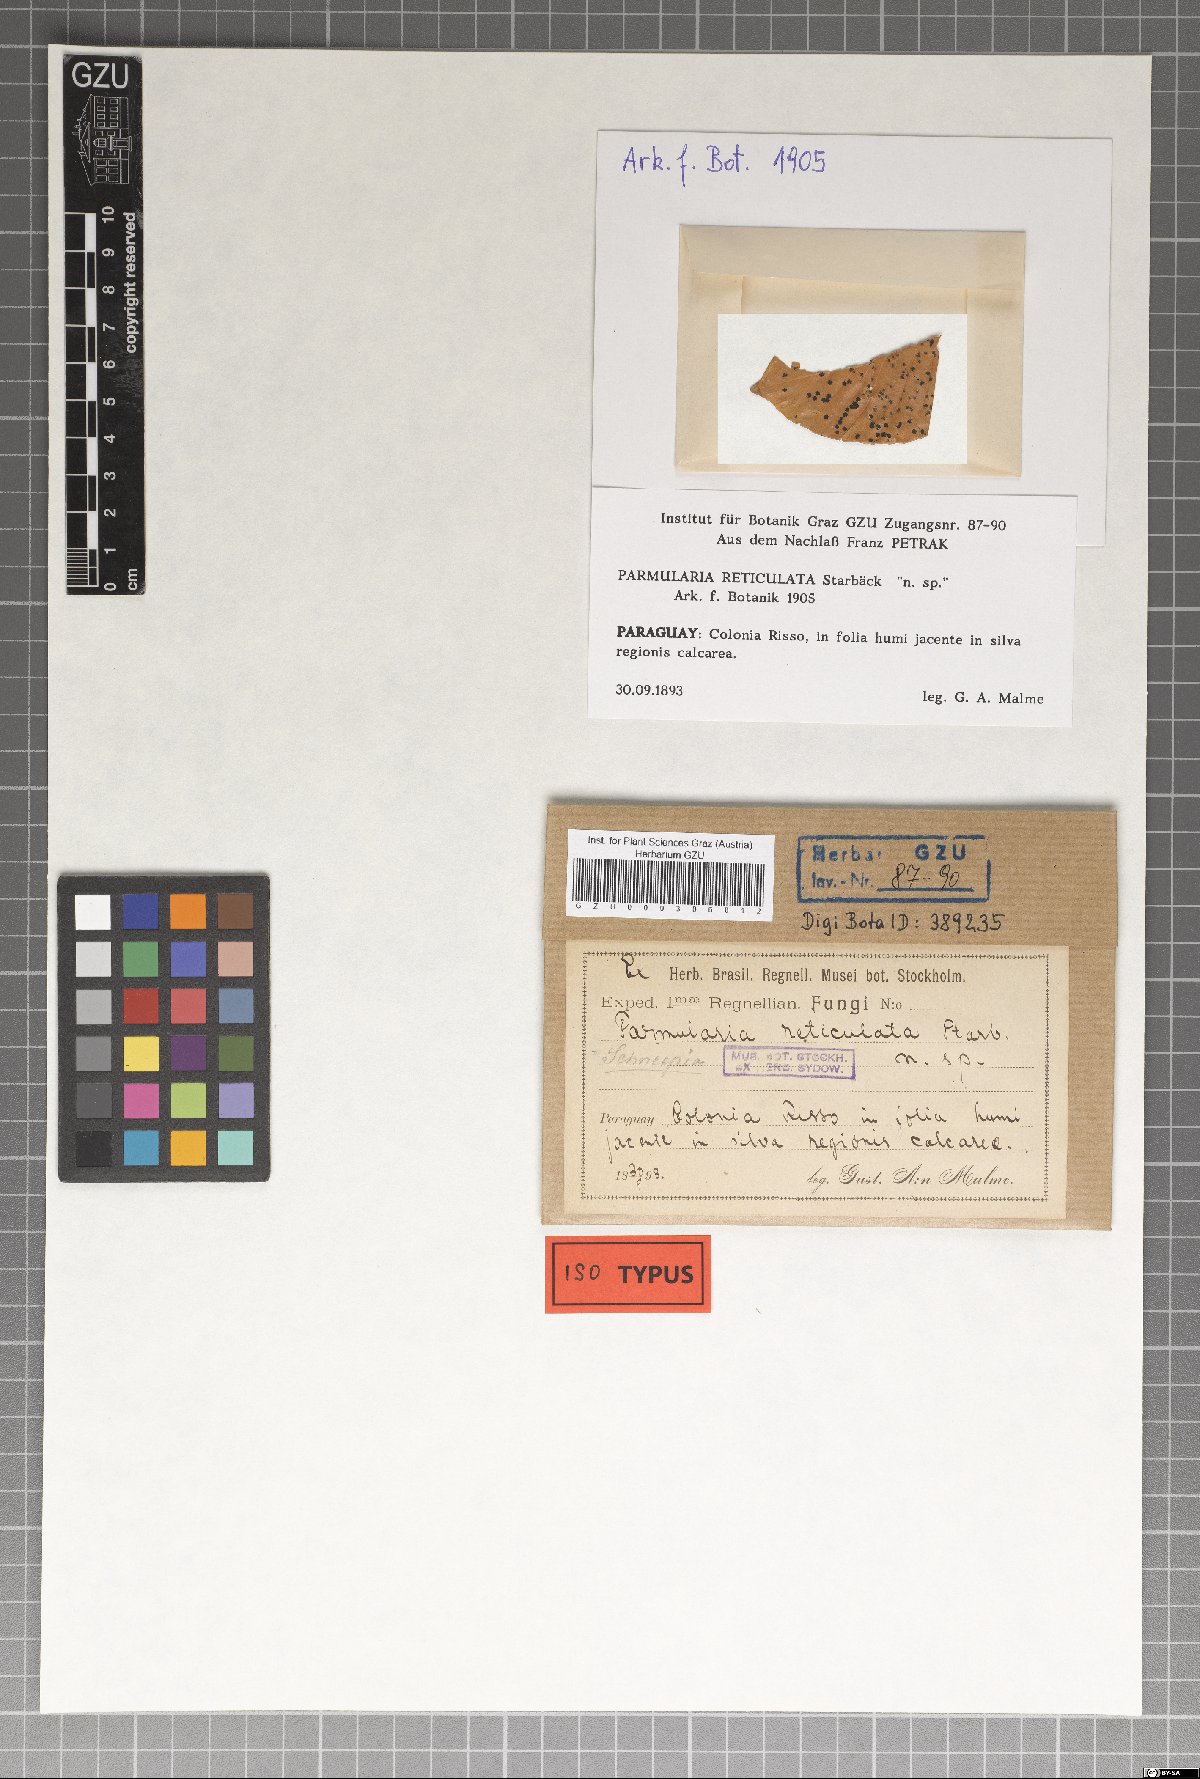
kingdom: Fungi
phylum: Ascomycota
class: Dothideomycetes
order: Asterinales
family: Parmulariaceae
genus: Mintera
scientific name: Mintera reticulata
